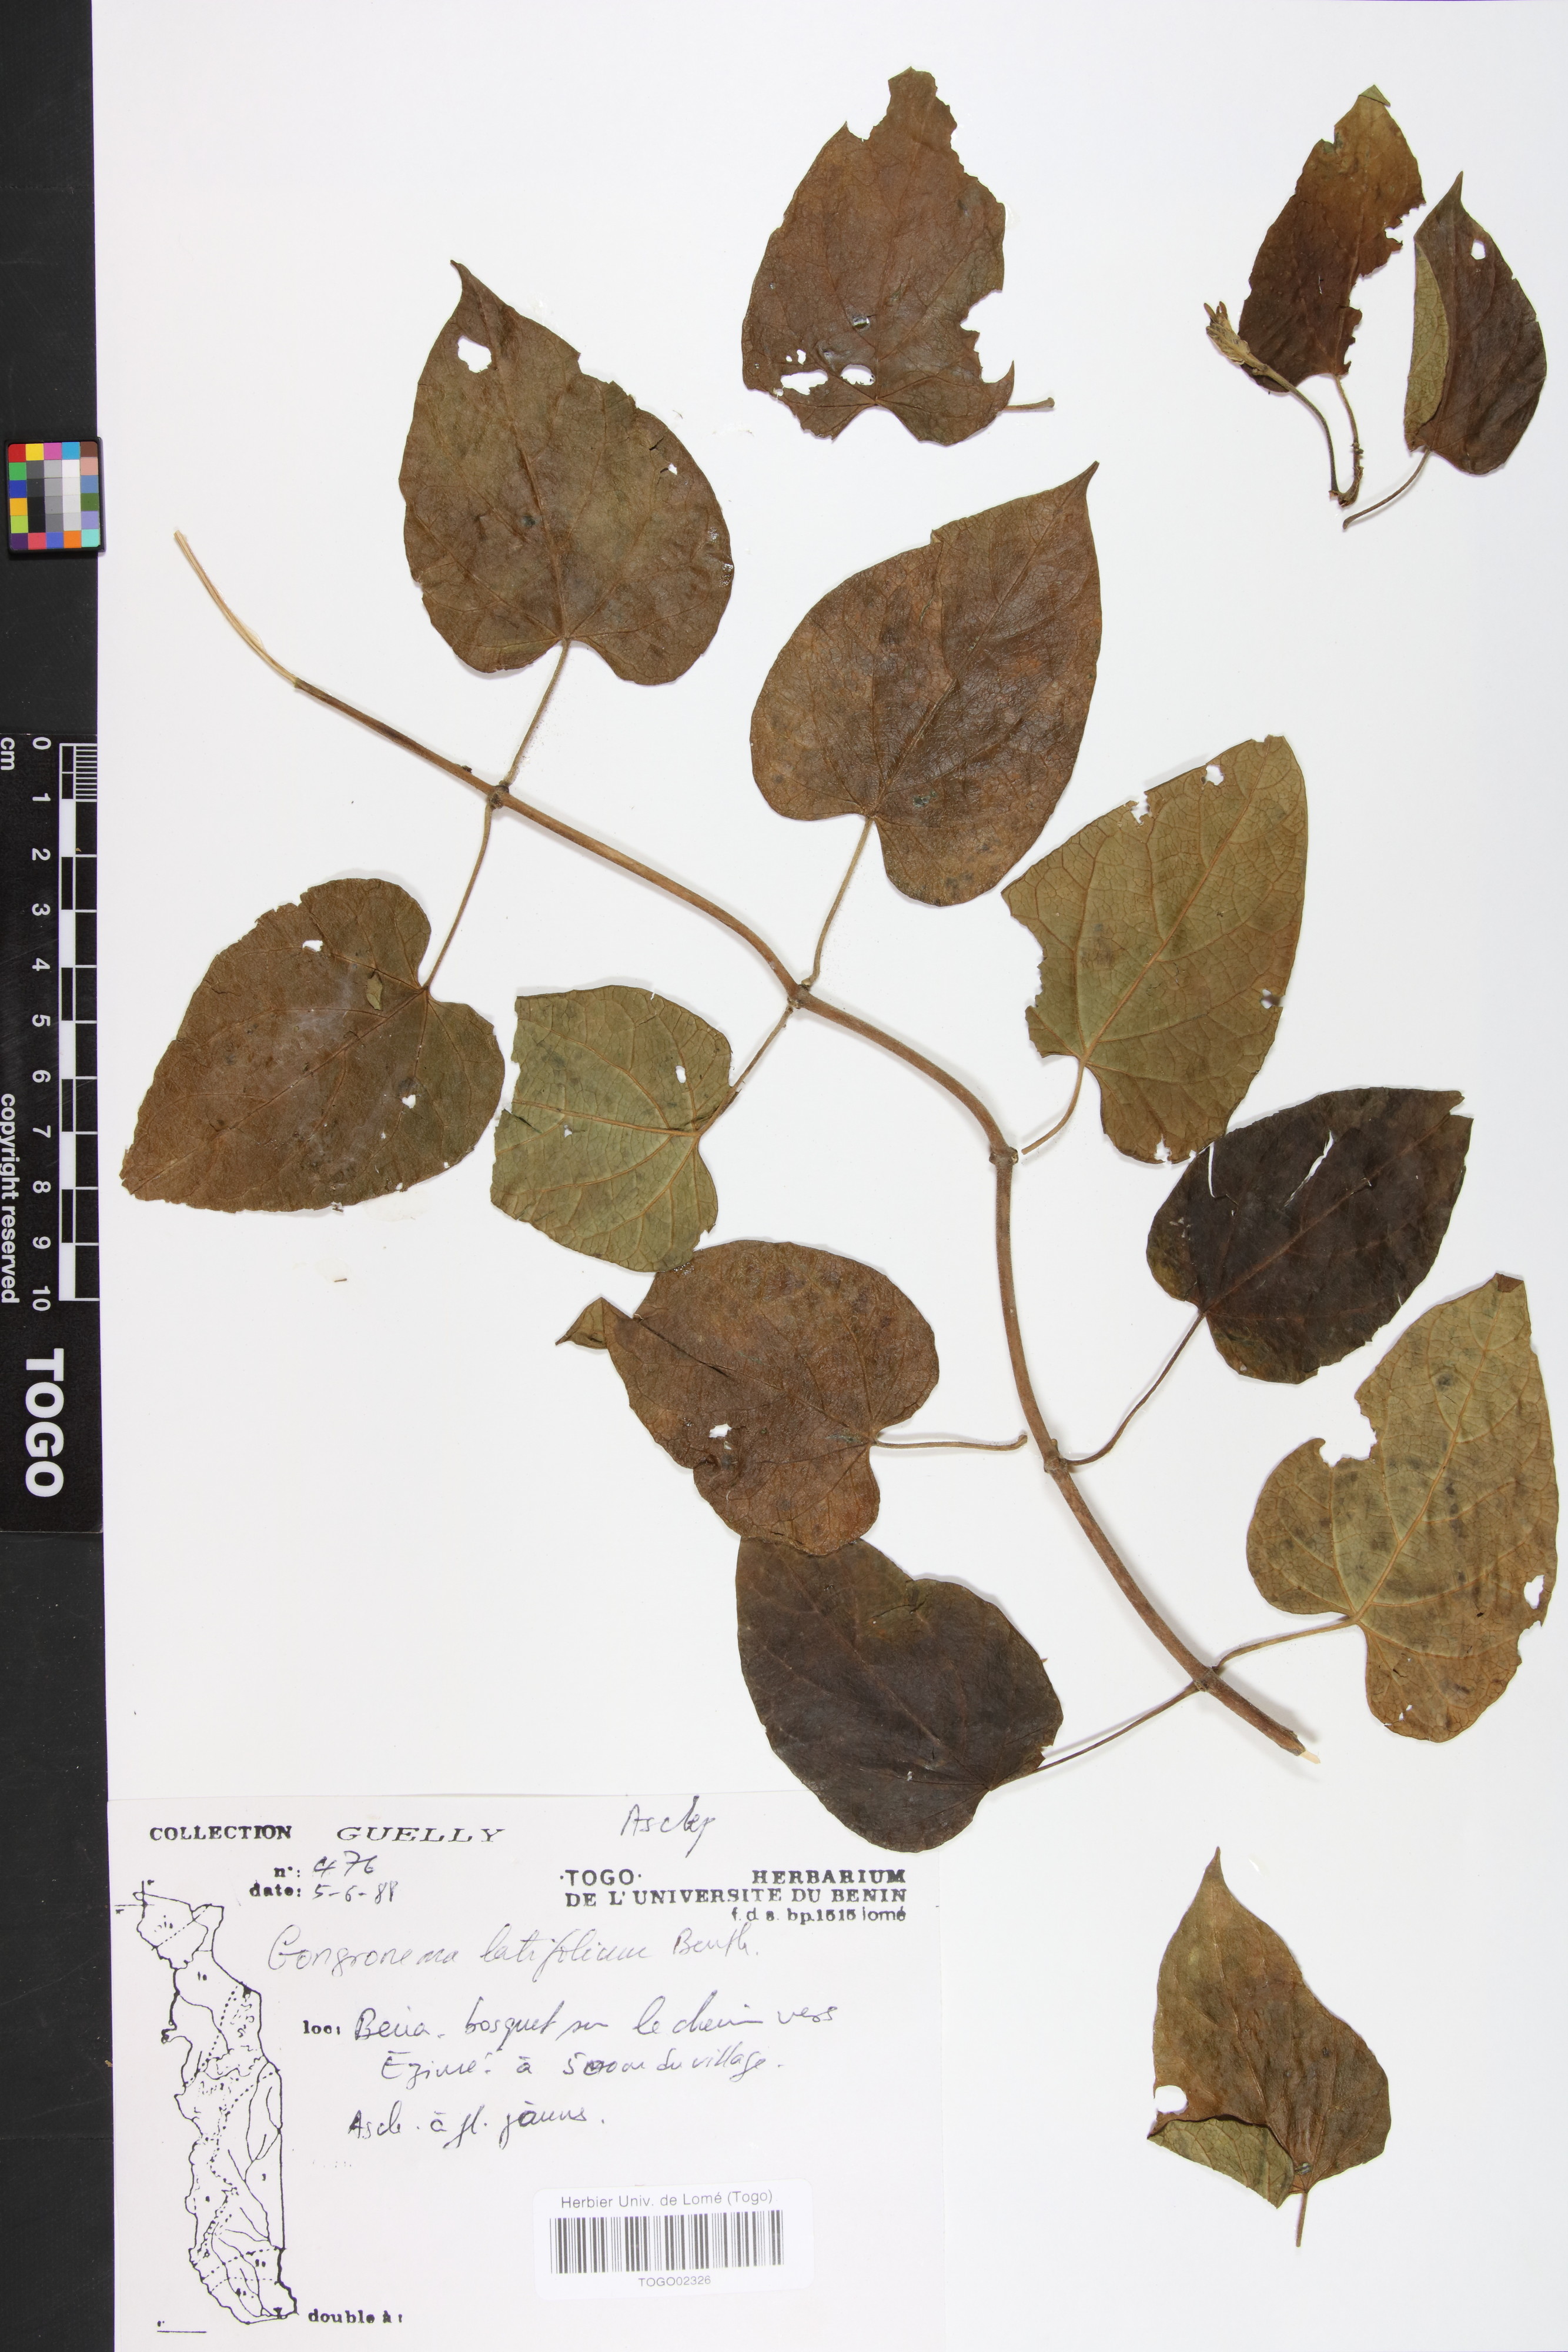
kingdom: Plantae
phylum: Tracheophyta
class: Magnoliopsida
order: Gentianales
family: Apocynaceae
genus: Gongronemopsis
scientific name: Gongronemopsis latifolia
